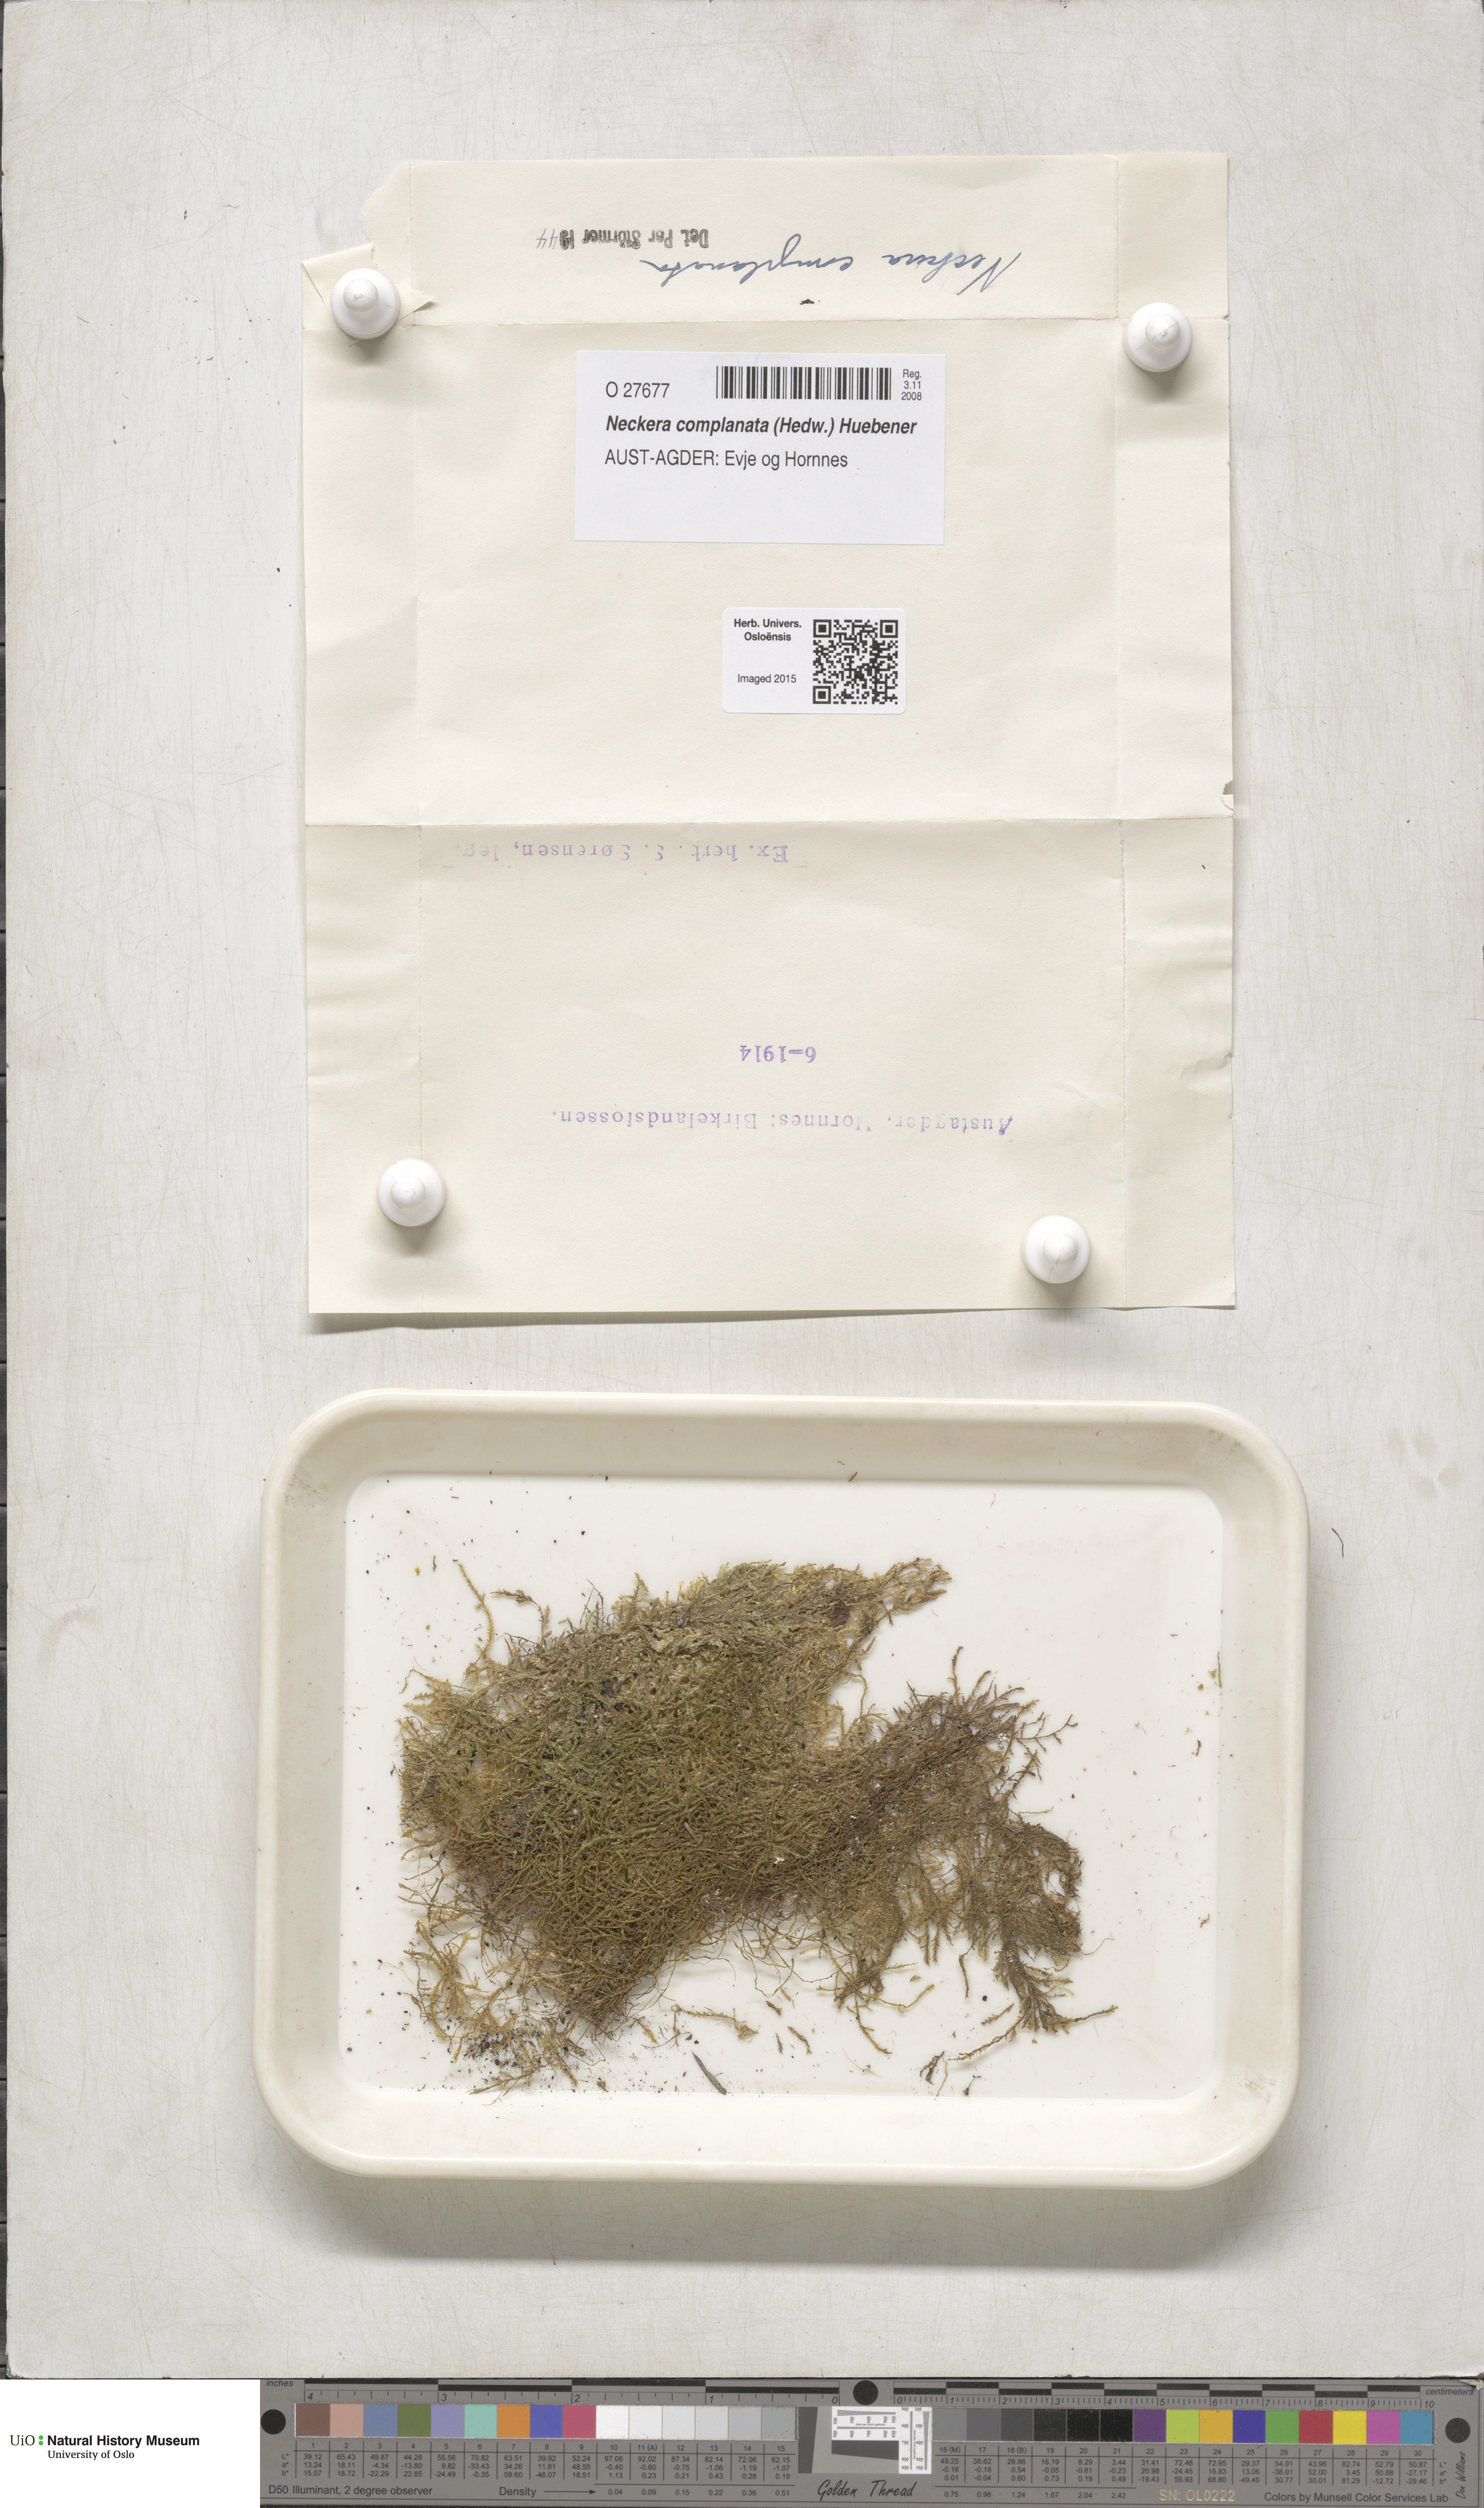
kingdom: Plantae
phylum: Bryophyta
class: Bryopsida
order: Hypnales
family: Neckeraceae
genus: Alleniella
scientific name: Alleniella complanata
